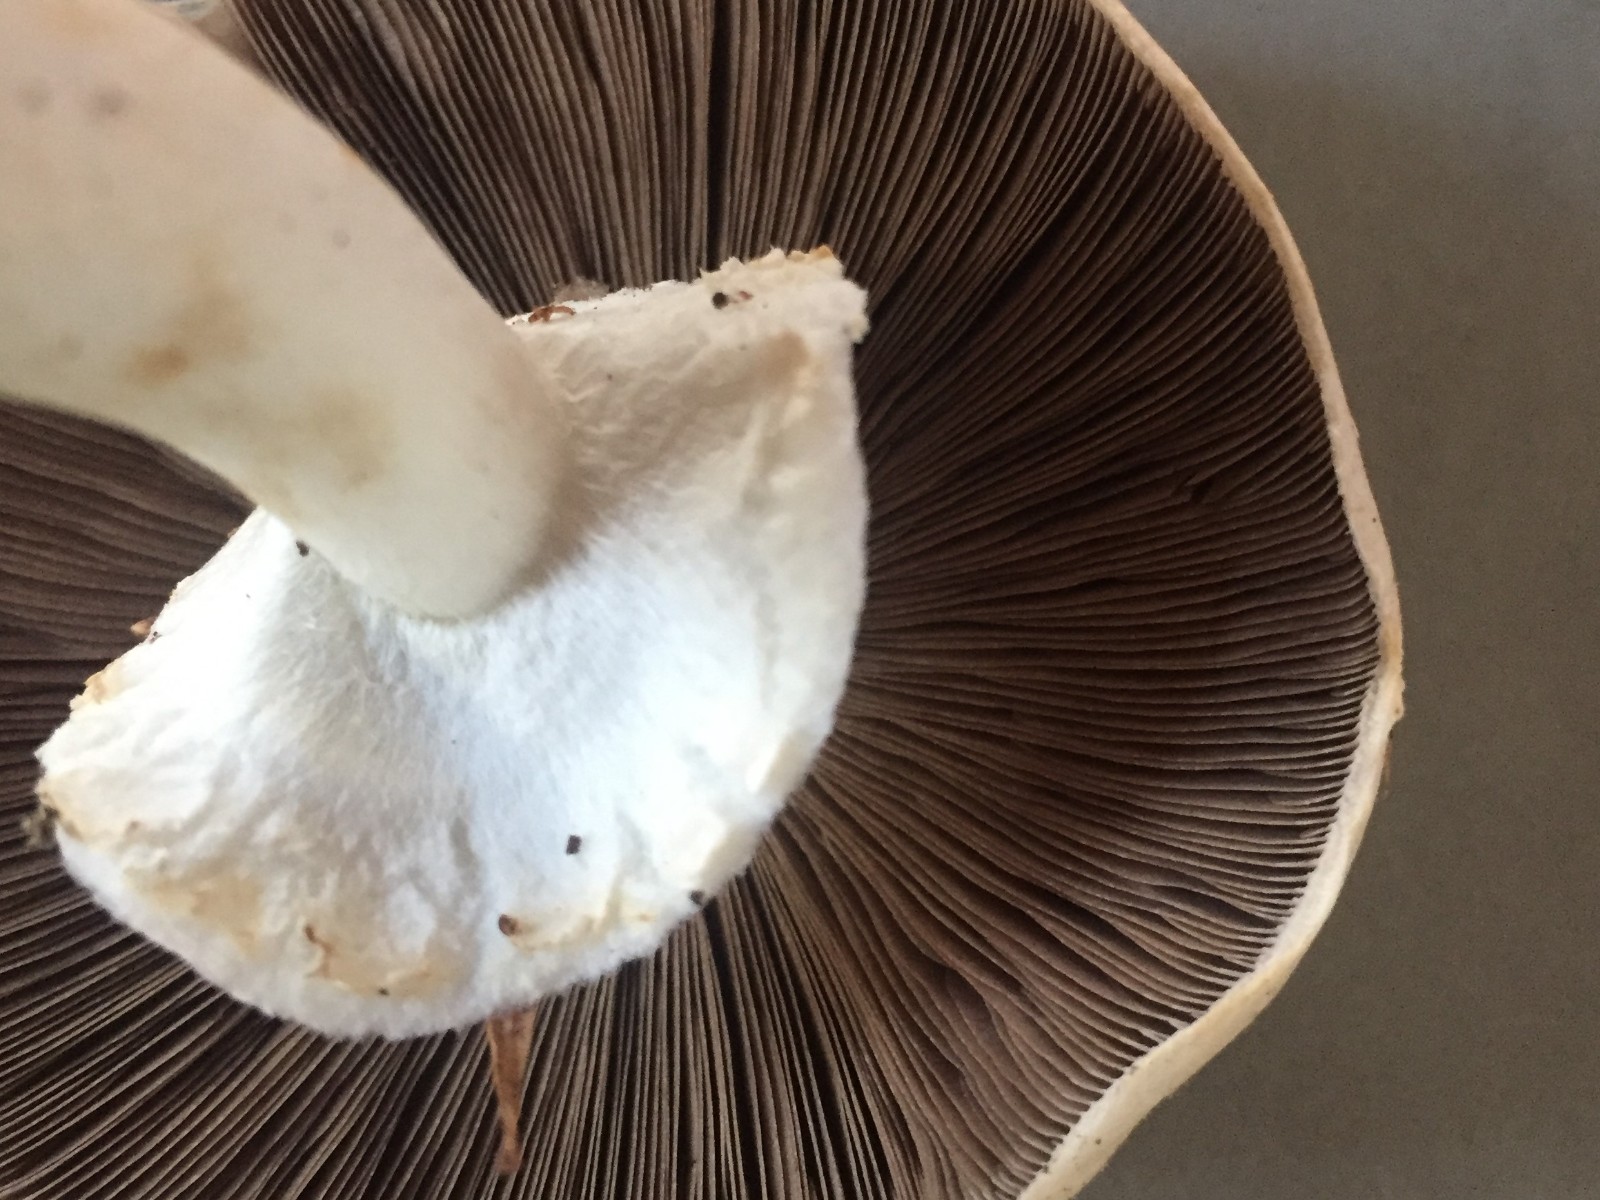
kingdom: Fungi
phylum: Basidiomycota
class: Agaricomycetes
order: Agaricales
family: Agaricaceae
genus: Agaricus
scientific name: Agaricus sylvicola
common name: gulhvid champignon
